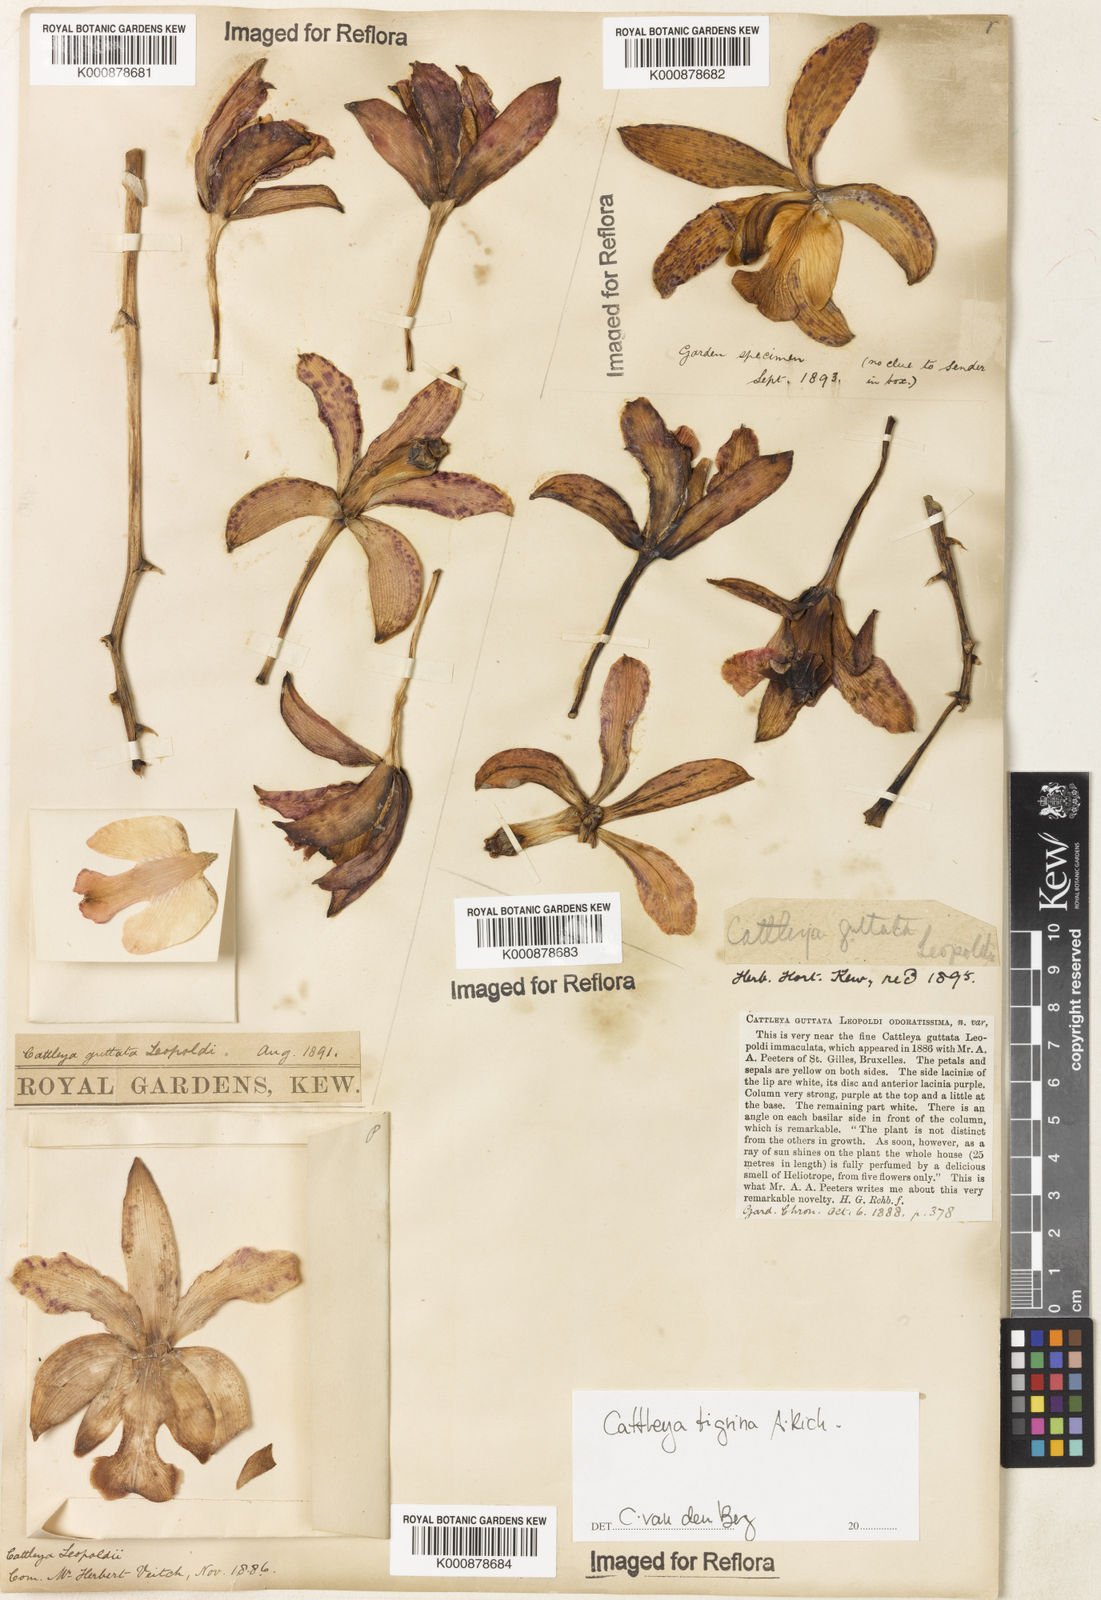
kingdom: Plantae
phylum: Tracheophyta
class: Liliopsida
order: Asparagales
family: Orchidaceae
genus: Cattleya
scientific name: Cattleya tigrina
